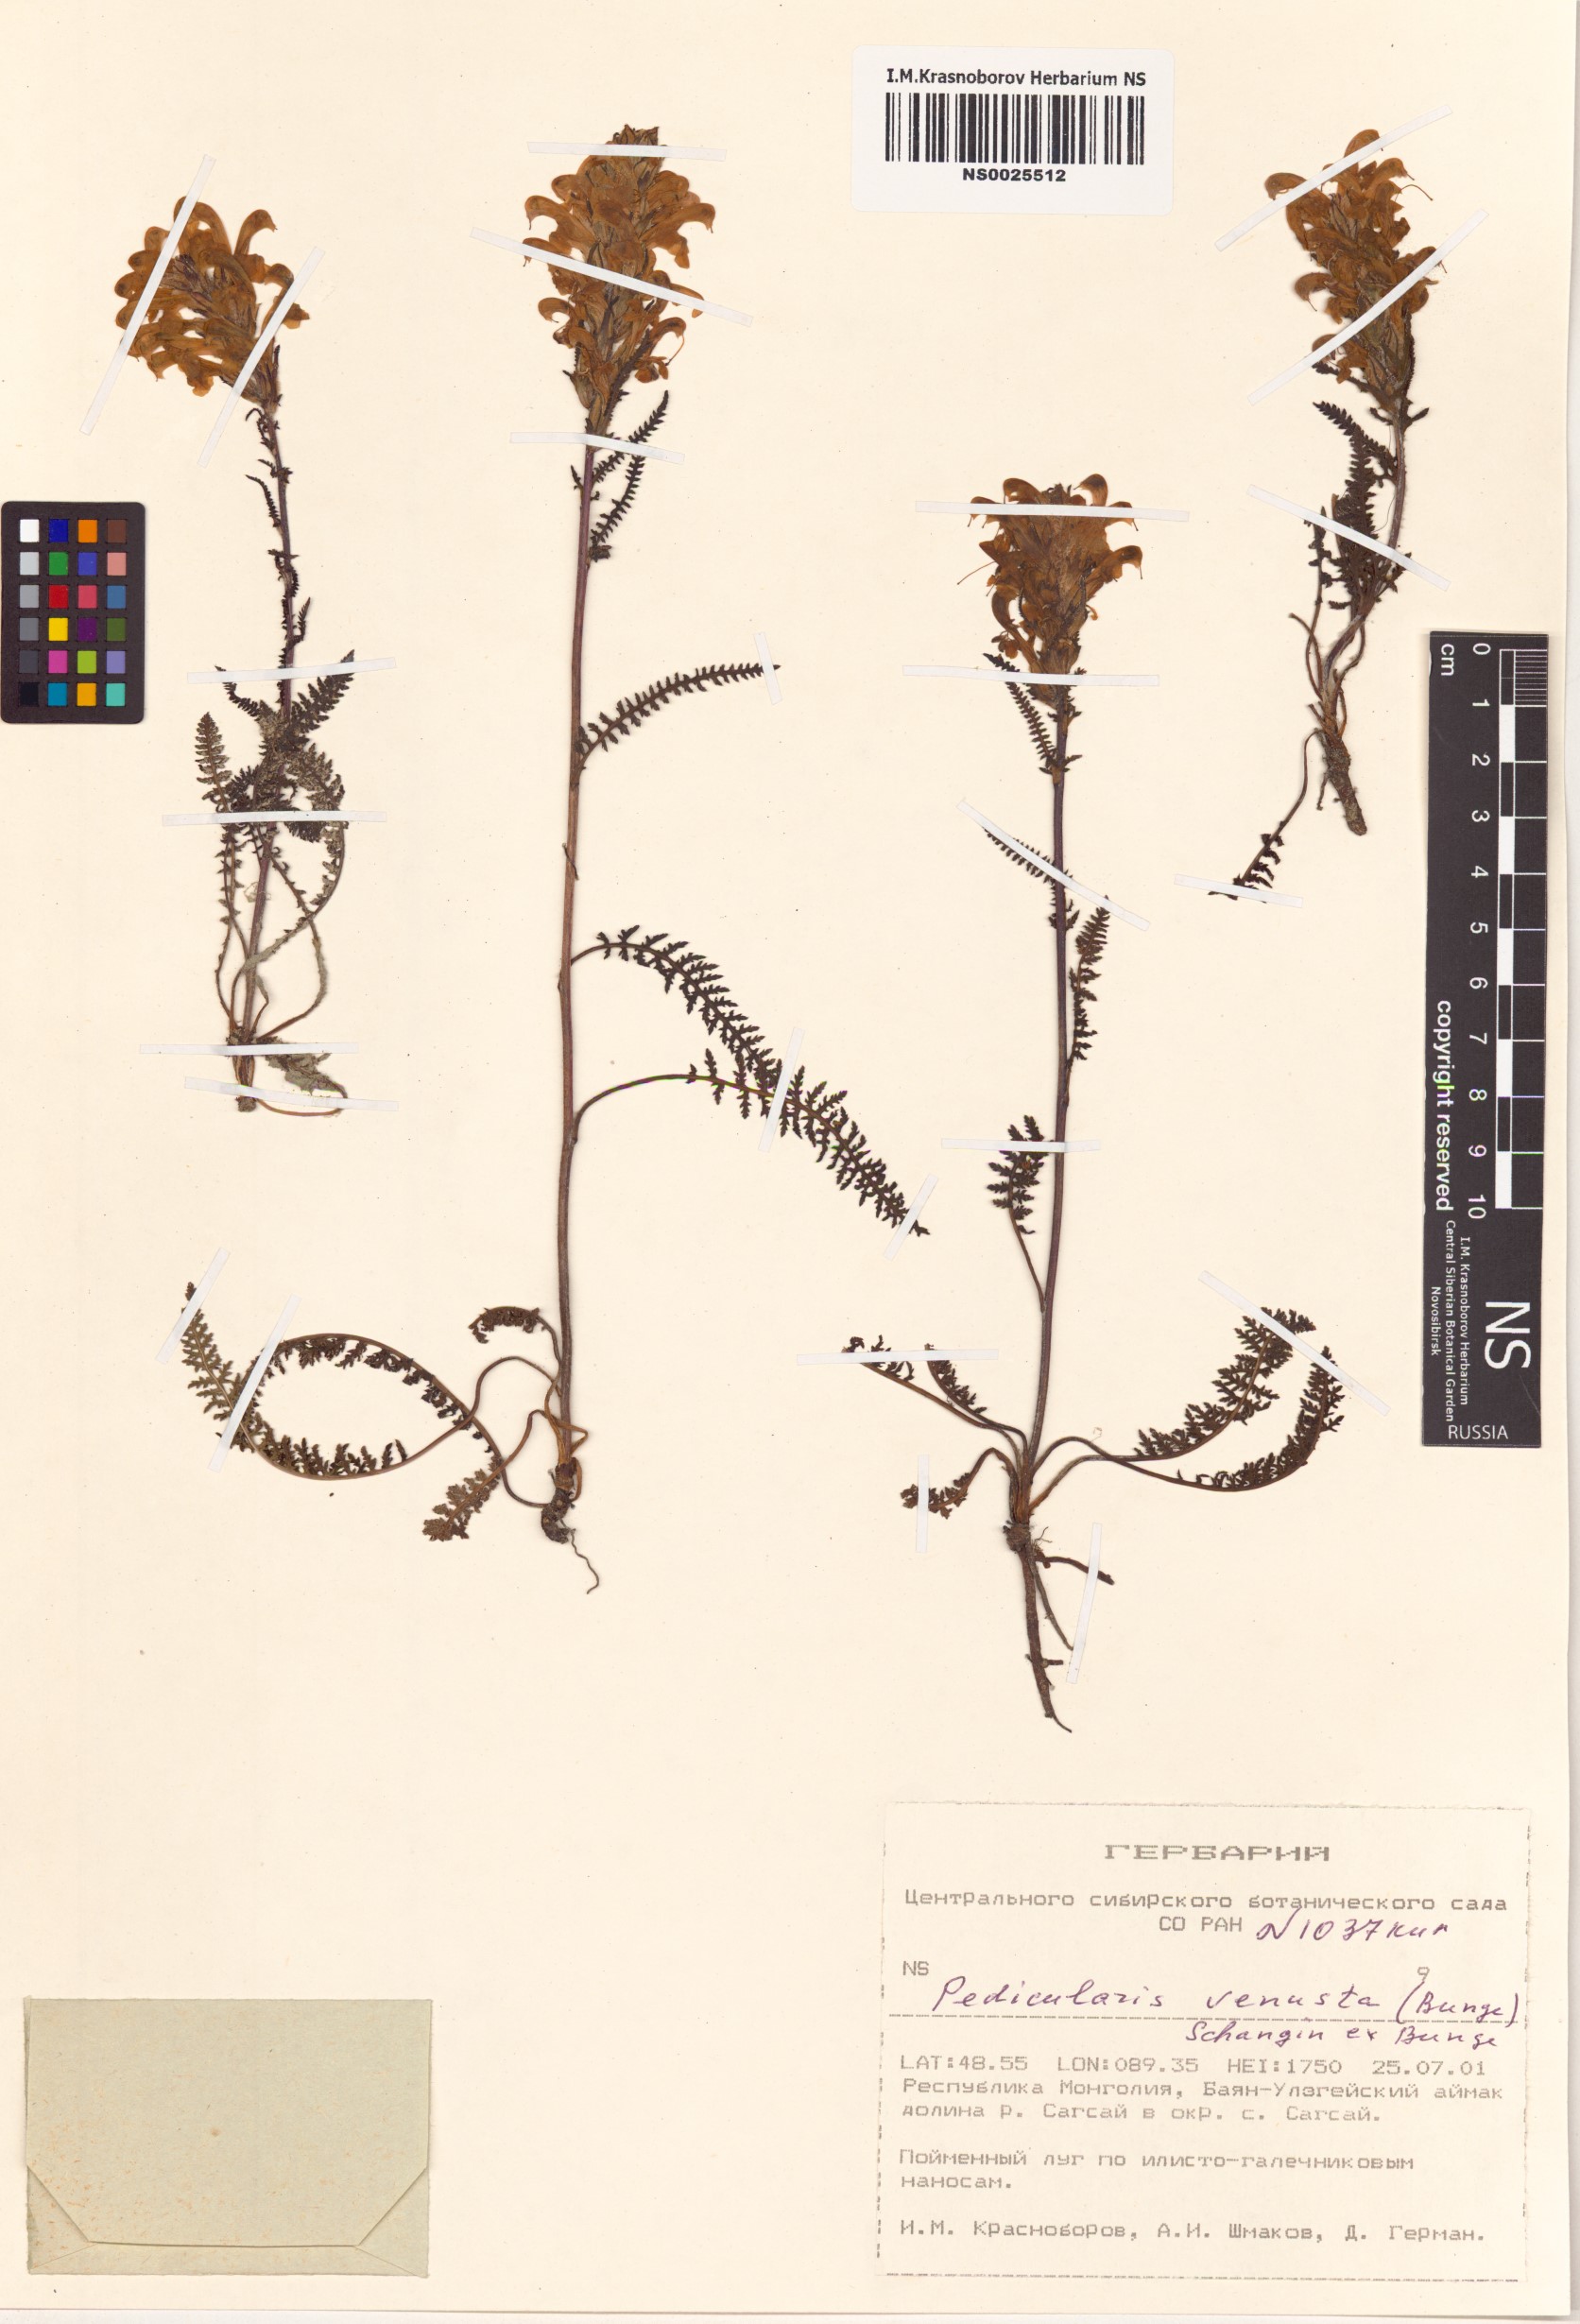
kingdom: Plantae
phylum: Tracheophyta
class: Magnoliopsida
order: Lamiales
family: Orobanchaceae
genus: Pedicularis
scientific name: Pedicularis venusta
